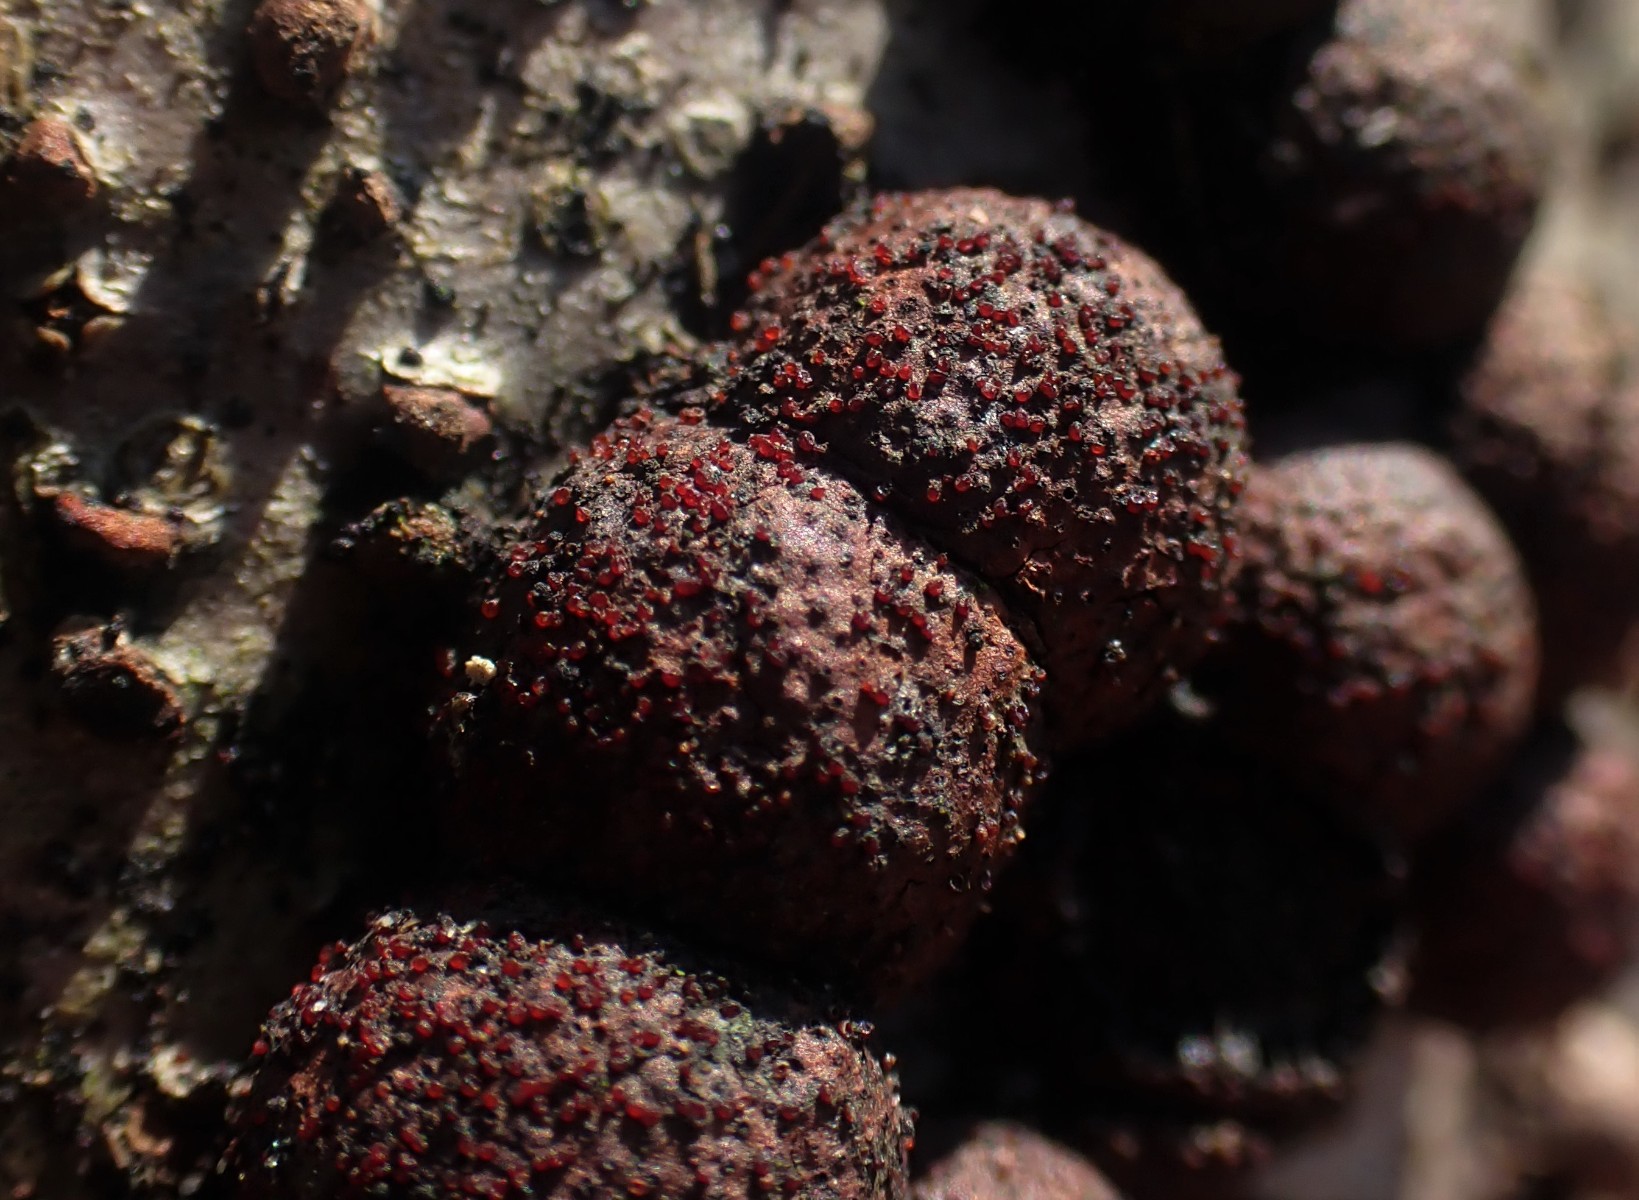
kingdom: Fungi
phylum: Ascomycota
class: Sordariomycetes
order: Hypocreales
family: Nectriaceae
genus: Cosmospora
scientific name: Cosmospora arxii
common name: kuljordbær-cinnobersvamp
